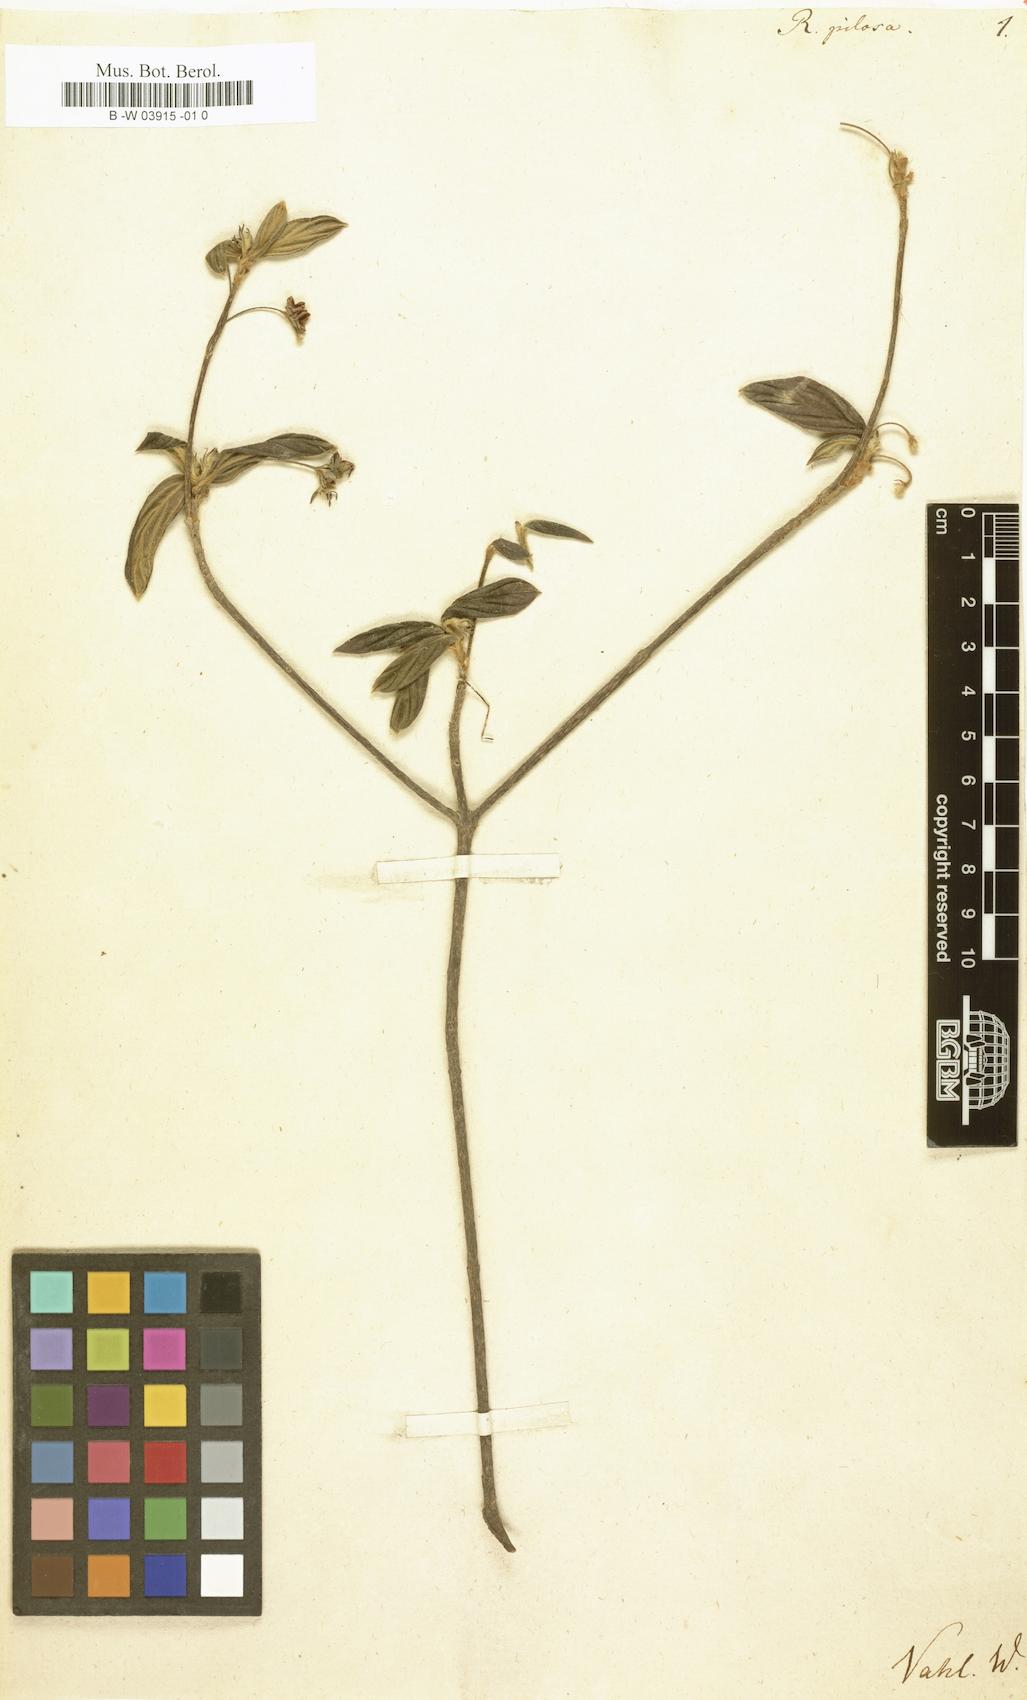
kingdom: Plantae
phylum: Tracheophyta
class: Magnoliopsida
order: Gentianales
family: Rubiaceae
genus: Rondeletia
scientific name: Rondeletia pilosa
